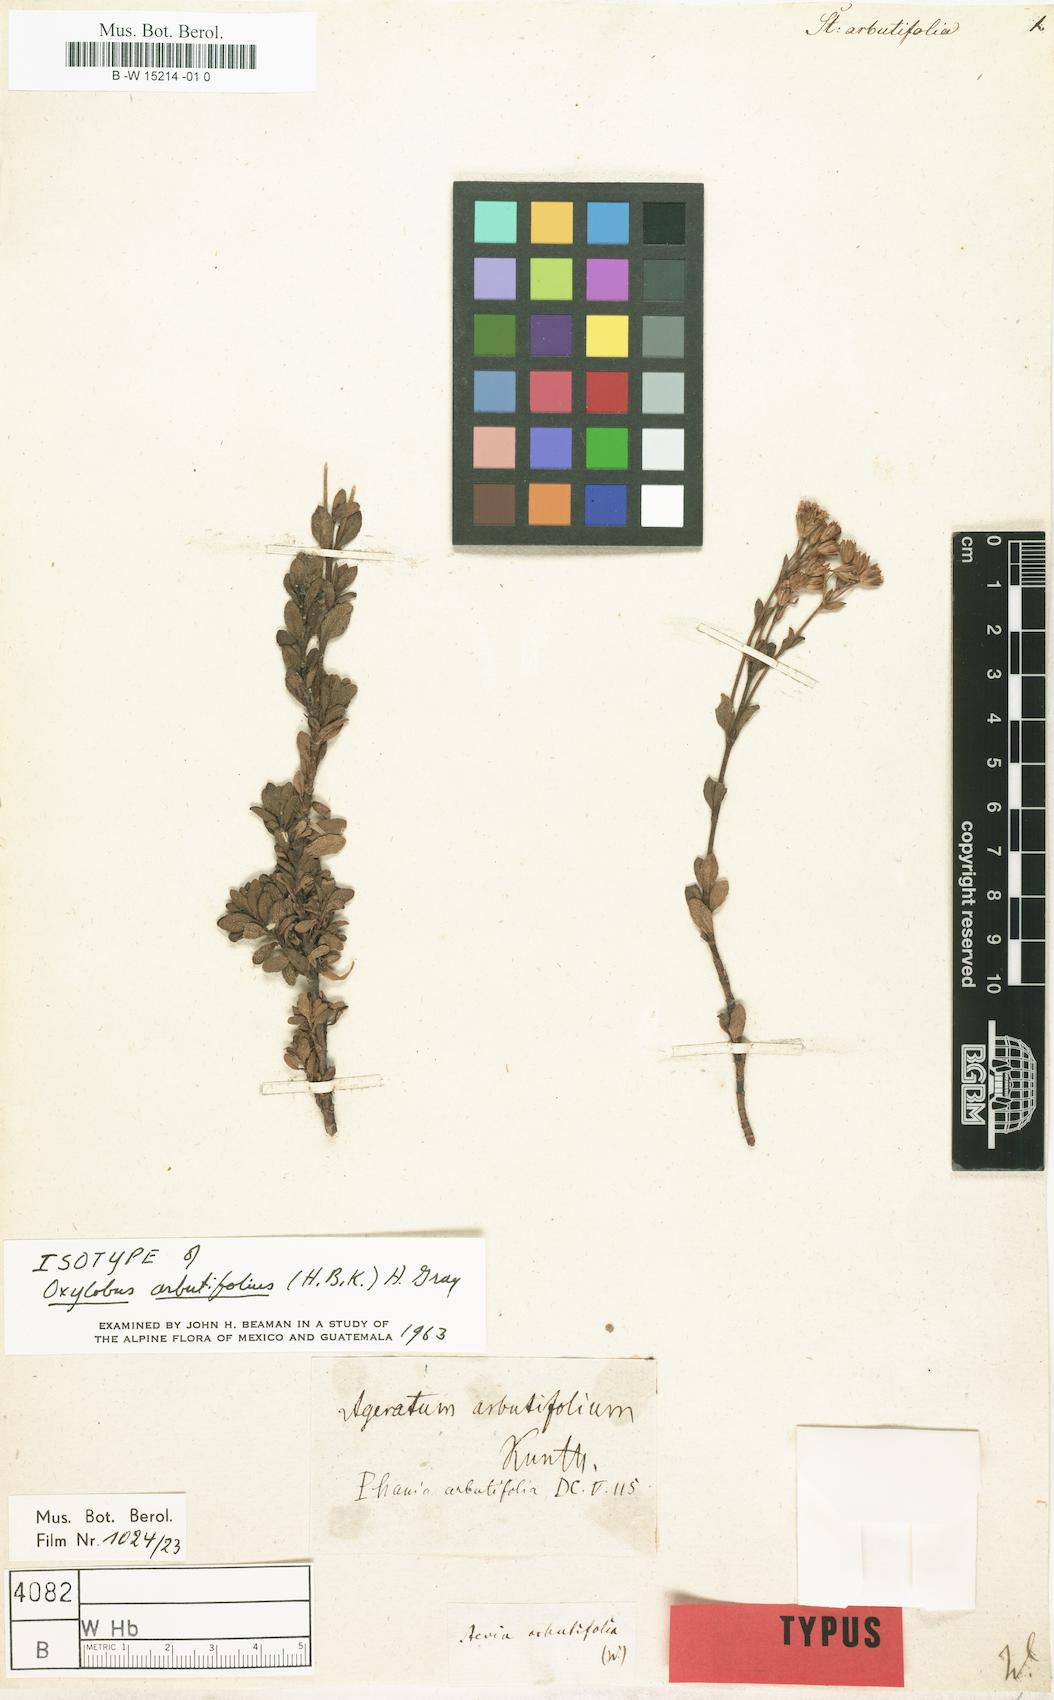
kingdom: Plantae
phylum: Tracheophyta
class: Magnoliopsida
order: Asterales
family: Asteraceae
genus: Stevia
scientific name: Stevia arbutifolia
